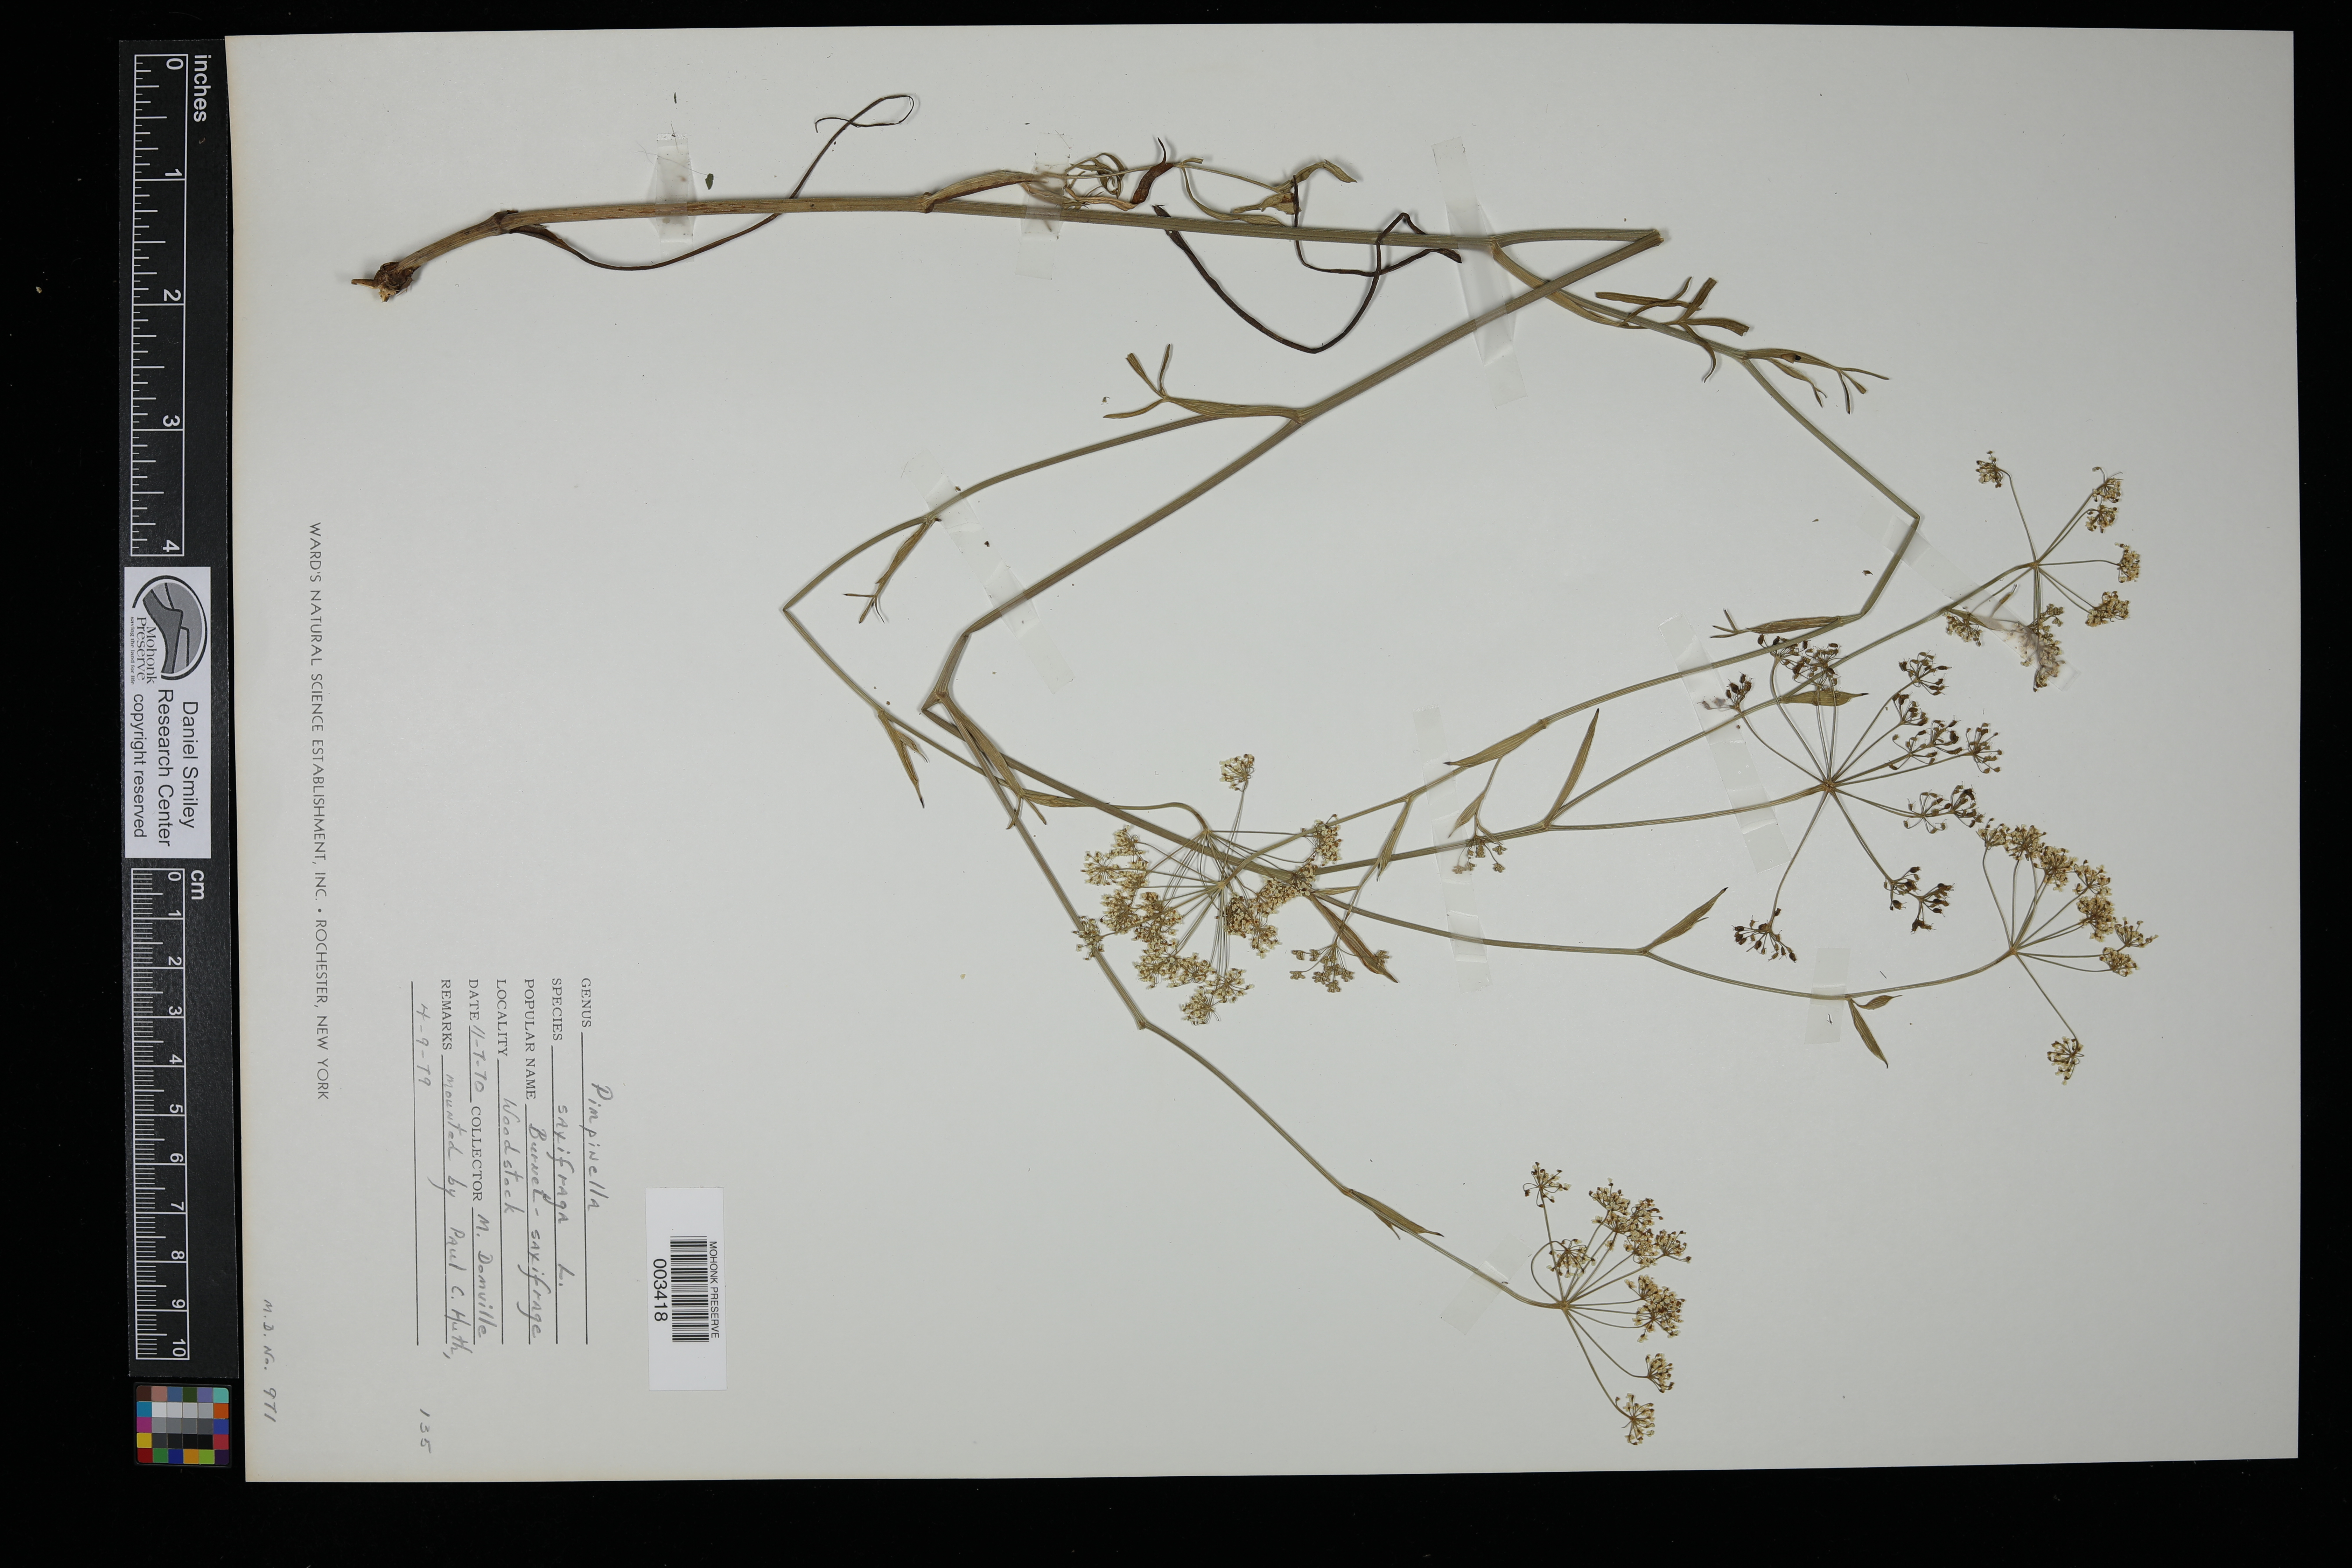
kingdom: Plantae
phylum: Tracheophyta
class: Magnoliopsida
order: Apiales
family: Apiaceae
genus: Pimpinella
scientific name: Pimpinella saxifraga
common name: Burnet-saxifrage
